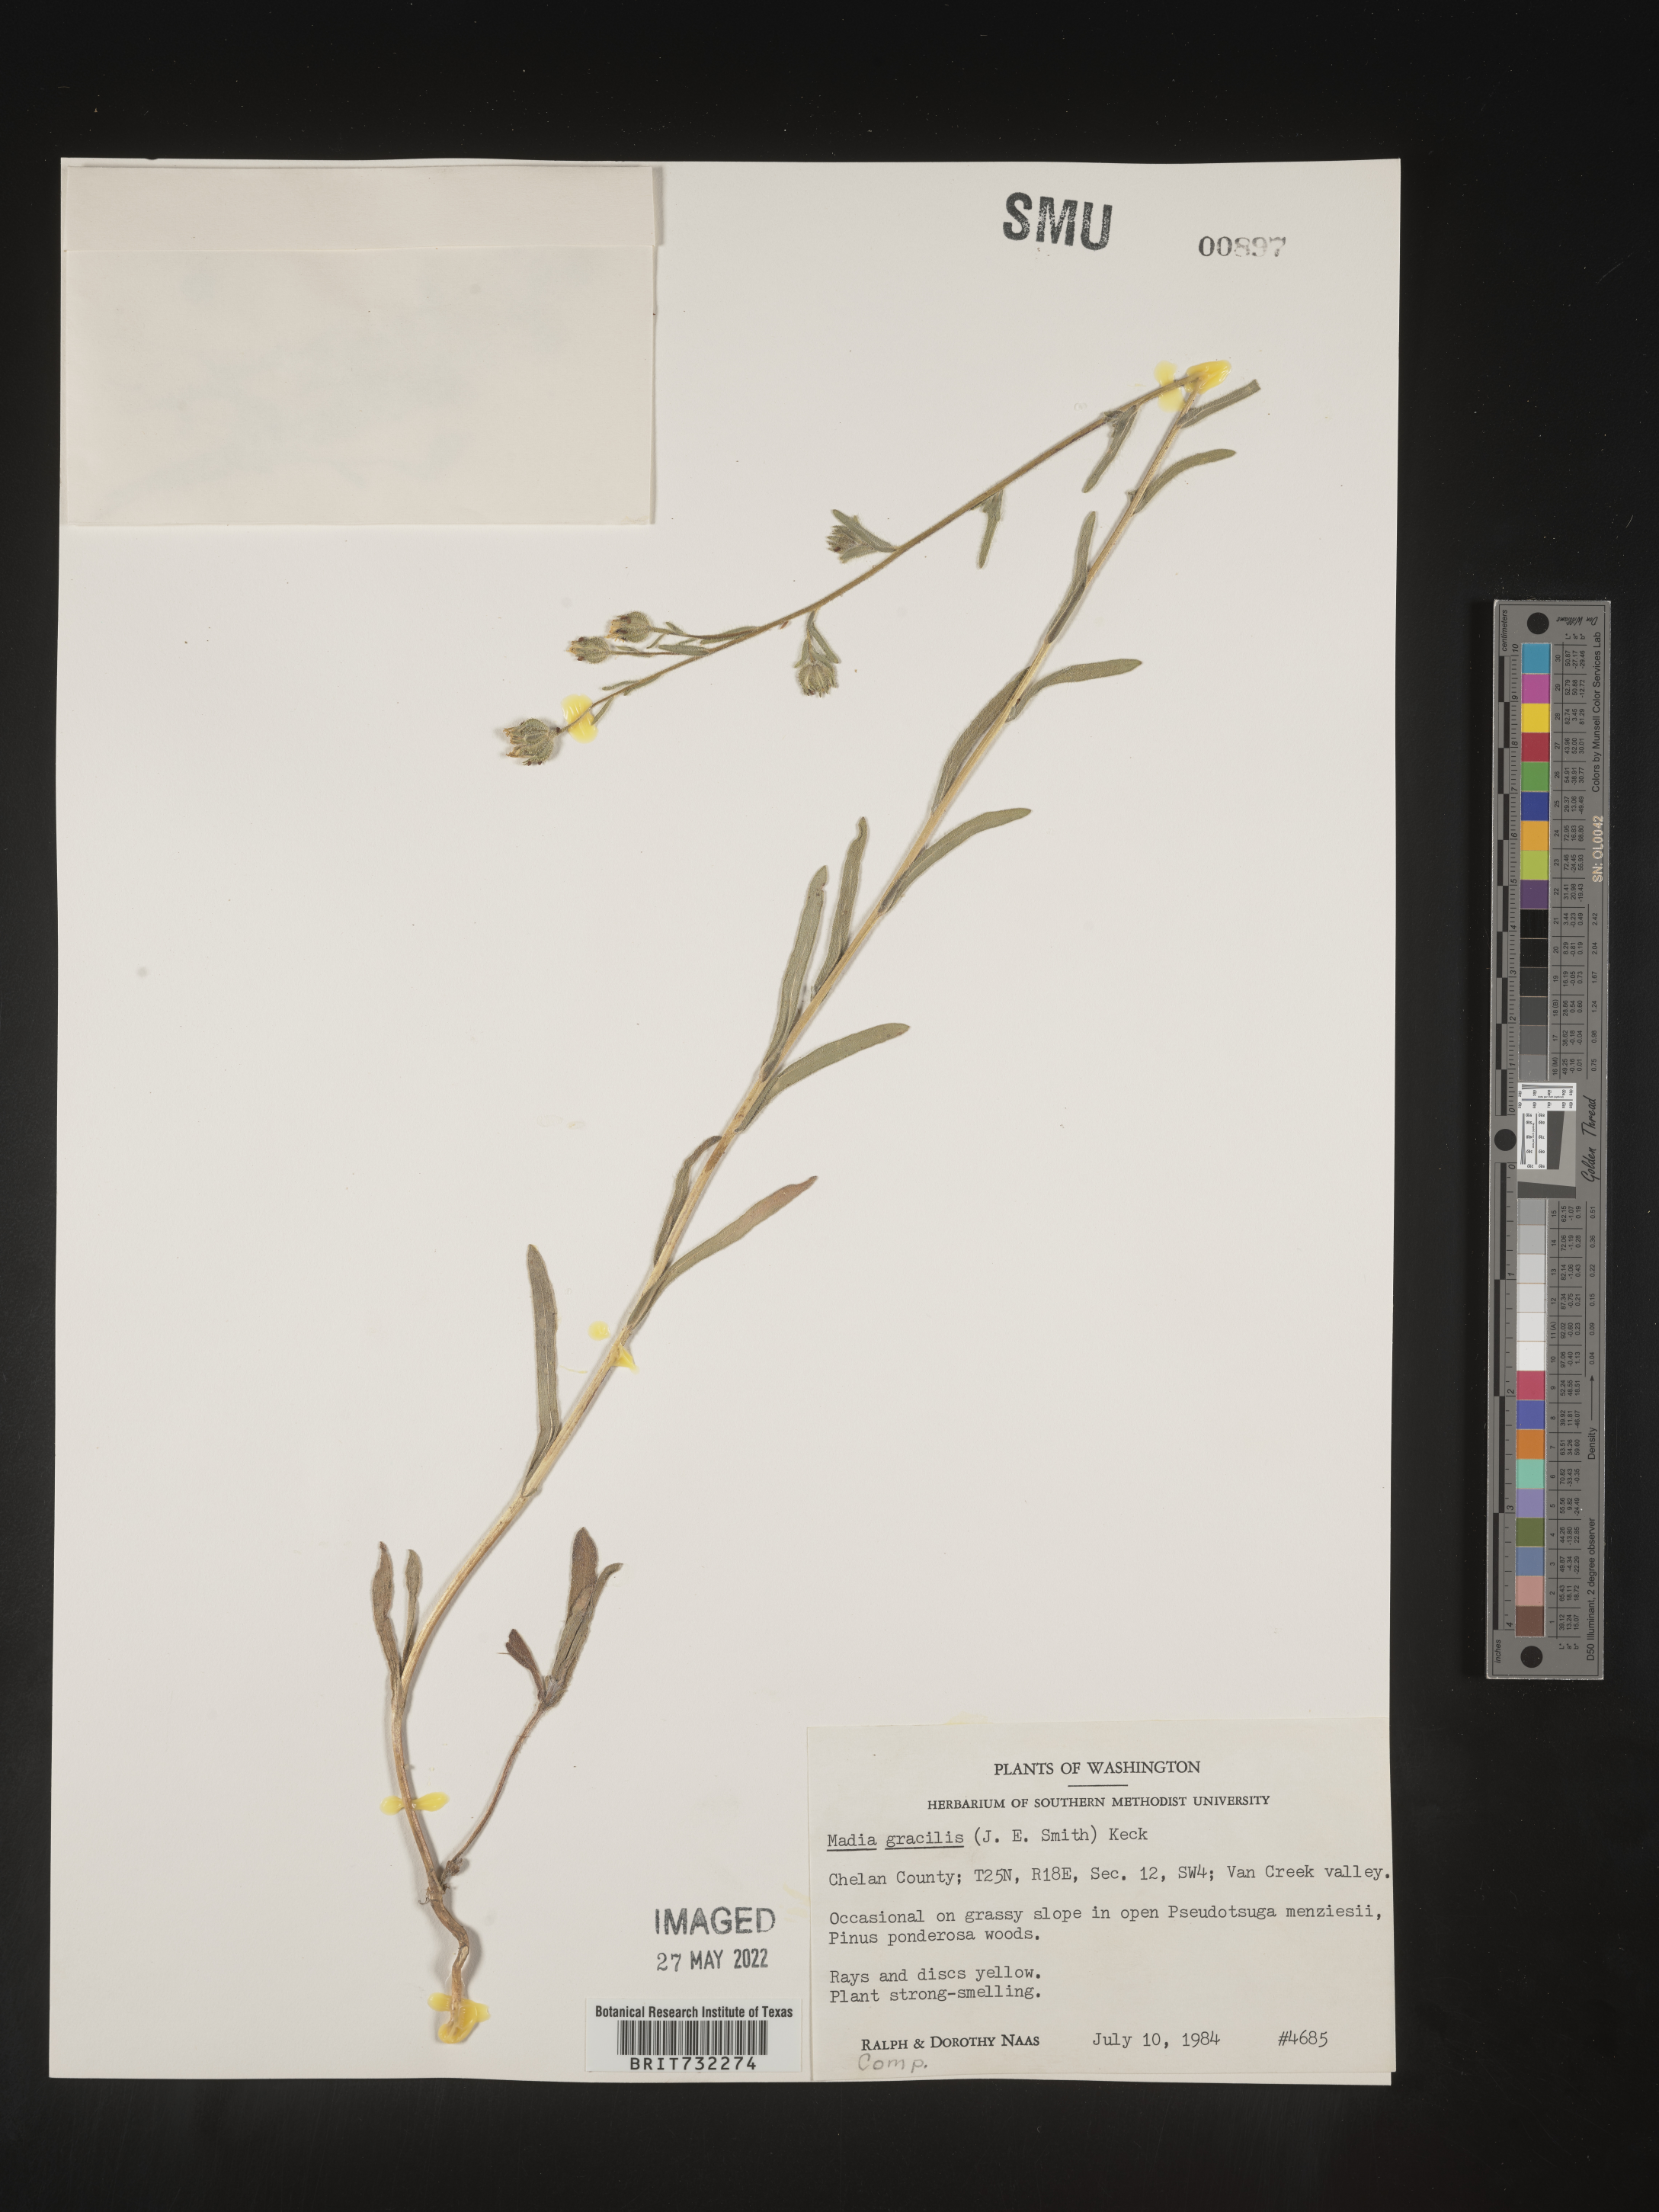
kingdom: Plantae
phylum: Tracheophyta
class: Magnoliopsida
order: Asterales
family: Asteraceae
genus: Madia
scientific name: Madia gracilis
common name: Grassy tarweed
